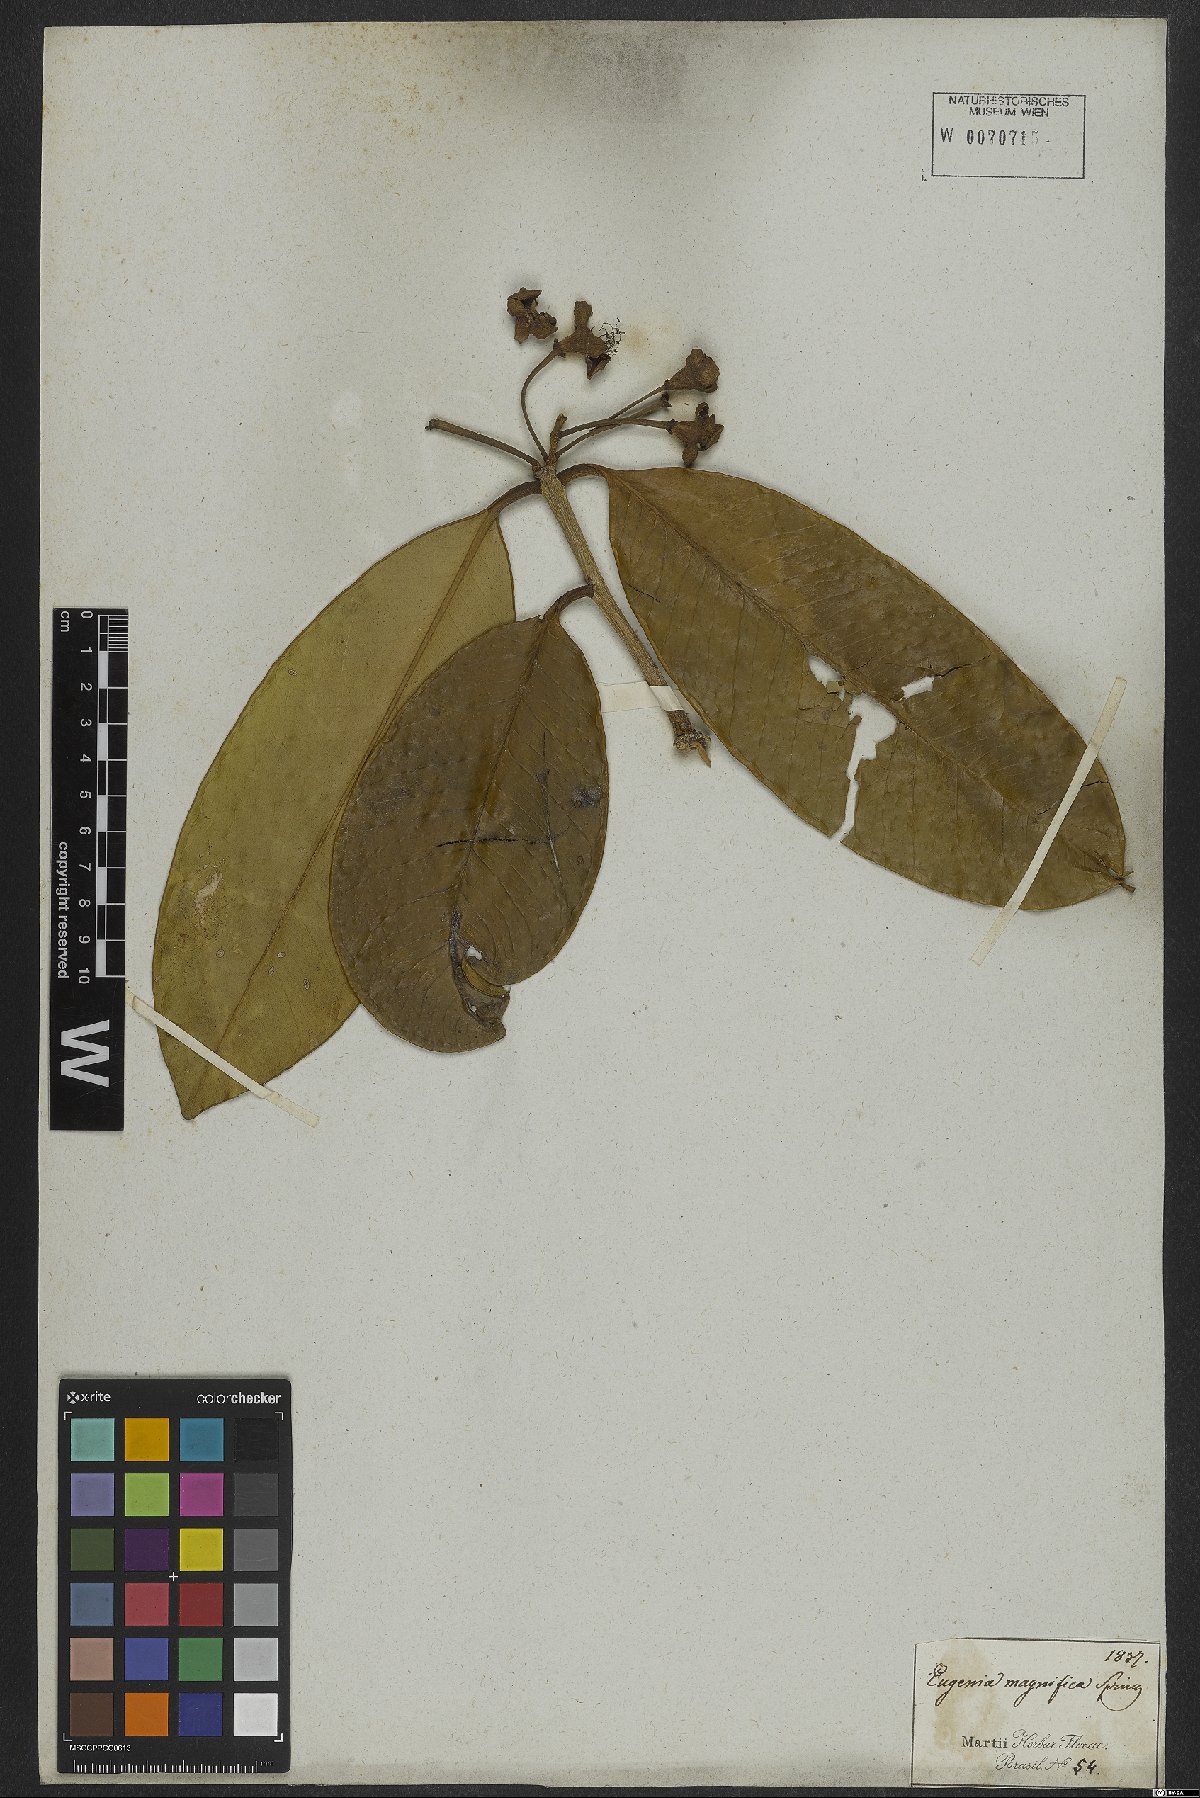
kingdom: Plantae
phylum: Tracheophyta
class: Magnoliopsida
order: Myrtales
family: Myrtaceae
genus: Eugenia
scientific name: Eugenia magnifica
